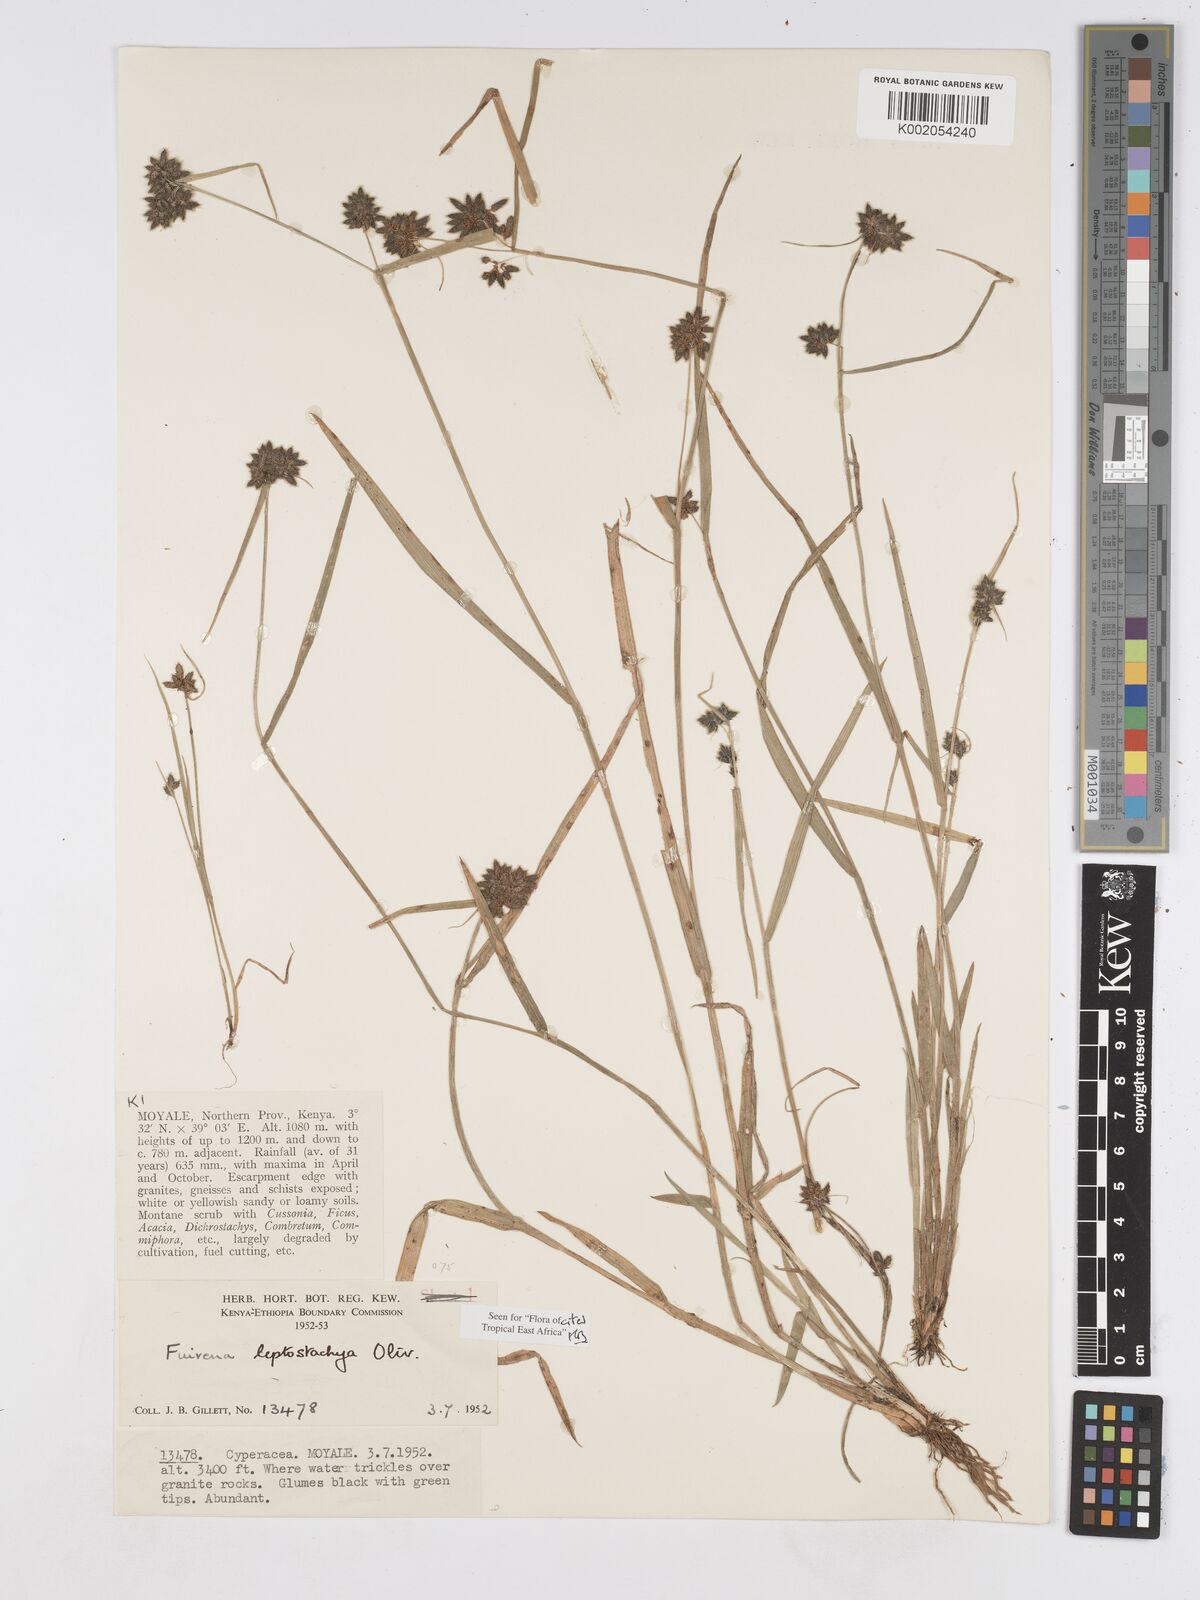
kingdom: Plantae
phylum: Tracheophyta
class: Liliopsida
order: Poales
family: Cyperaceae
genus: Fuirena
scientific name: Fuirena leptostachya
